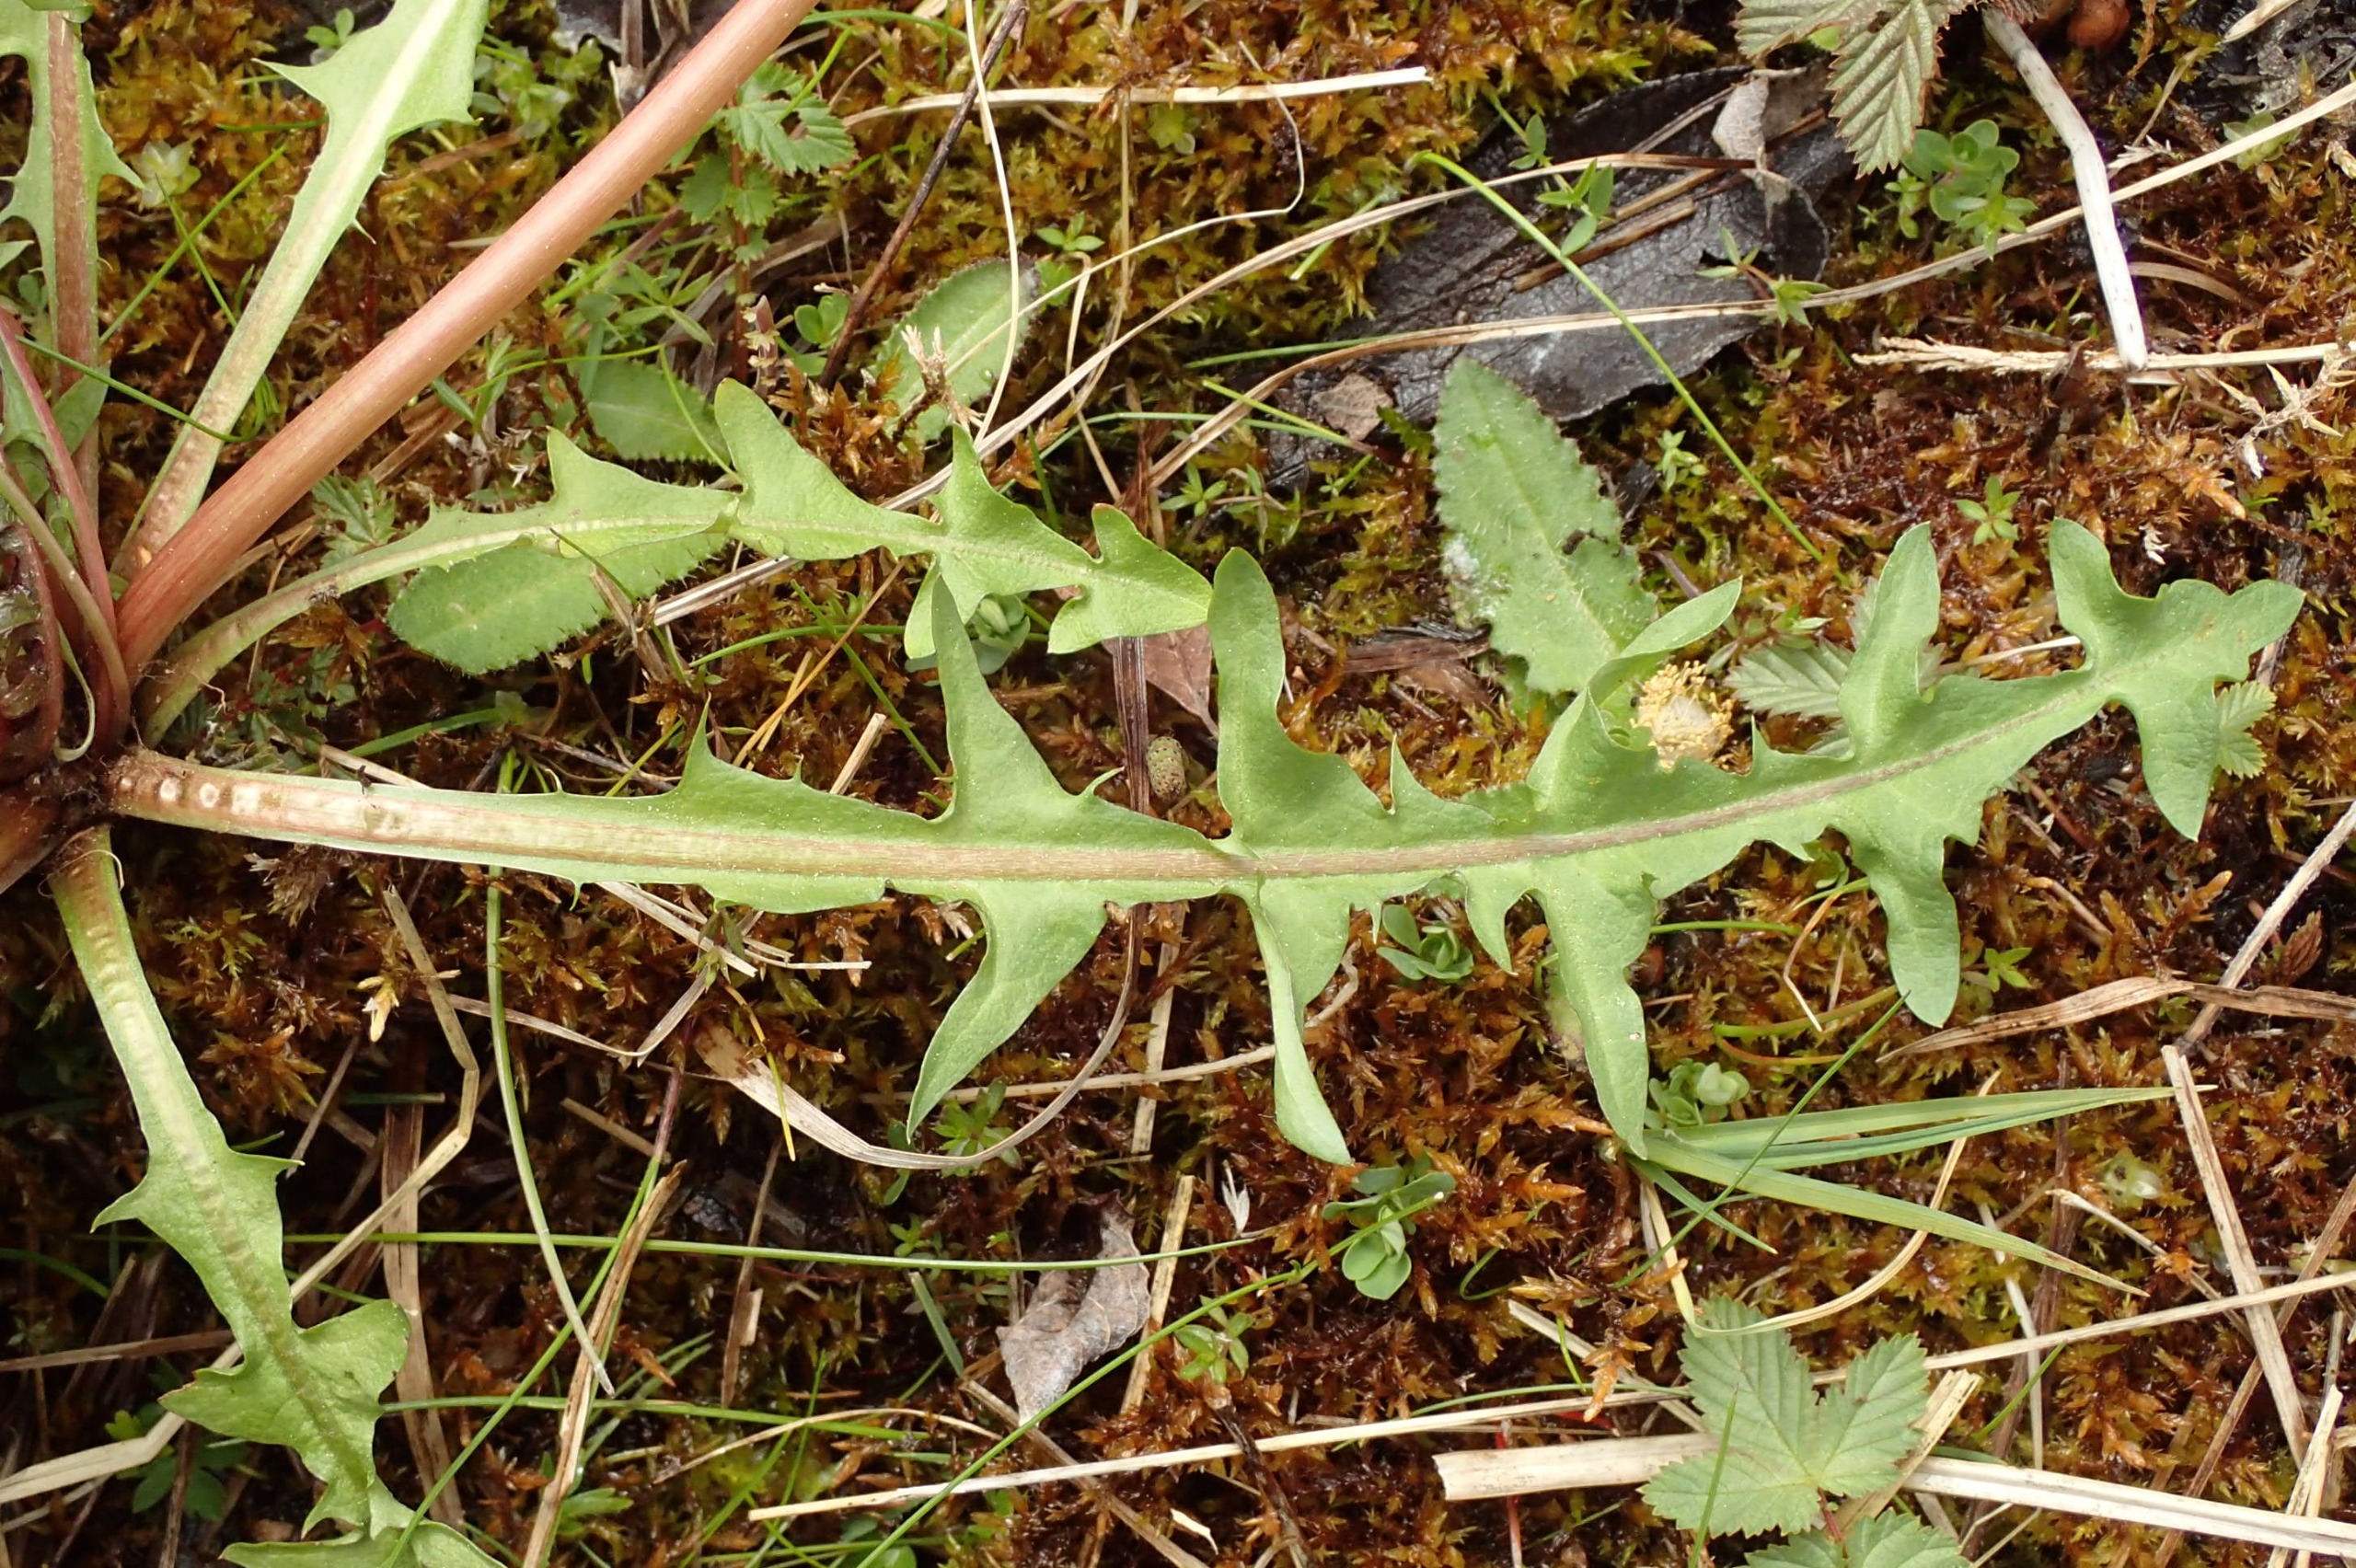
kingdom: Plantae
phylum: Tracheophyta
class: Magnoliopsida
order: Asterales
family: Asteraceae
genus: Taraxacum
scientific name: Taraxacum nordstedtii
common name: Nordstedts kærmælkebøtte
